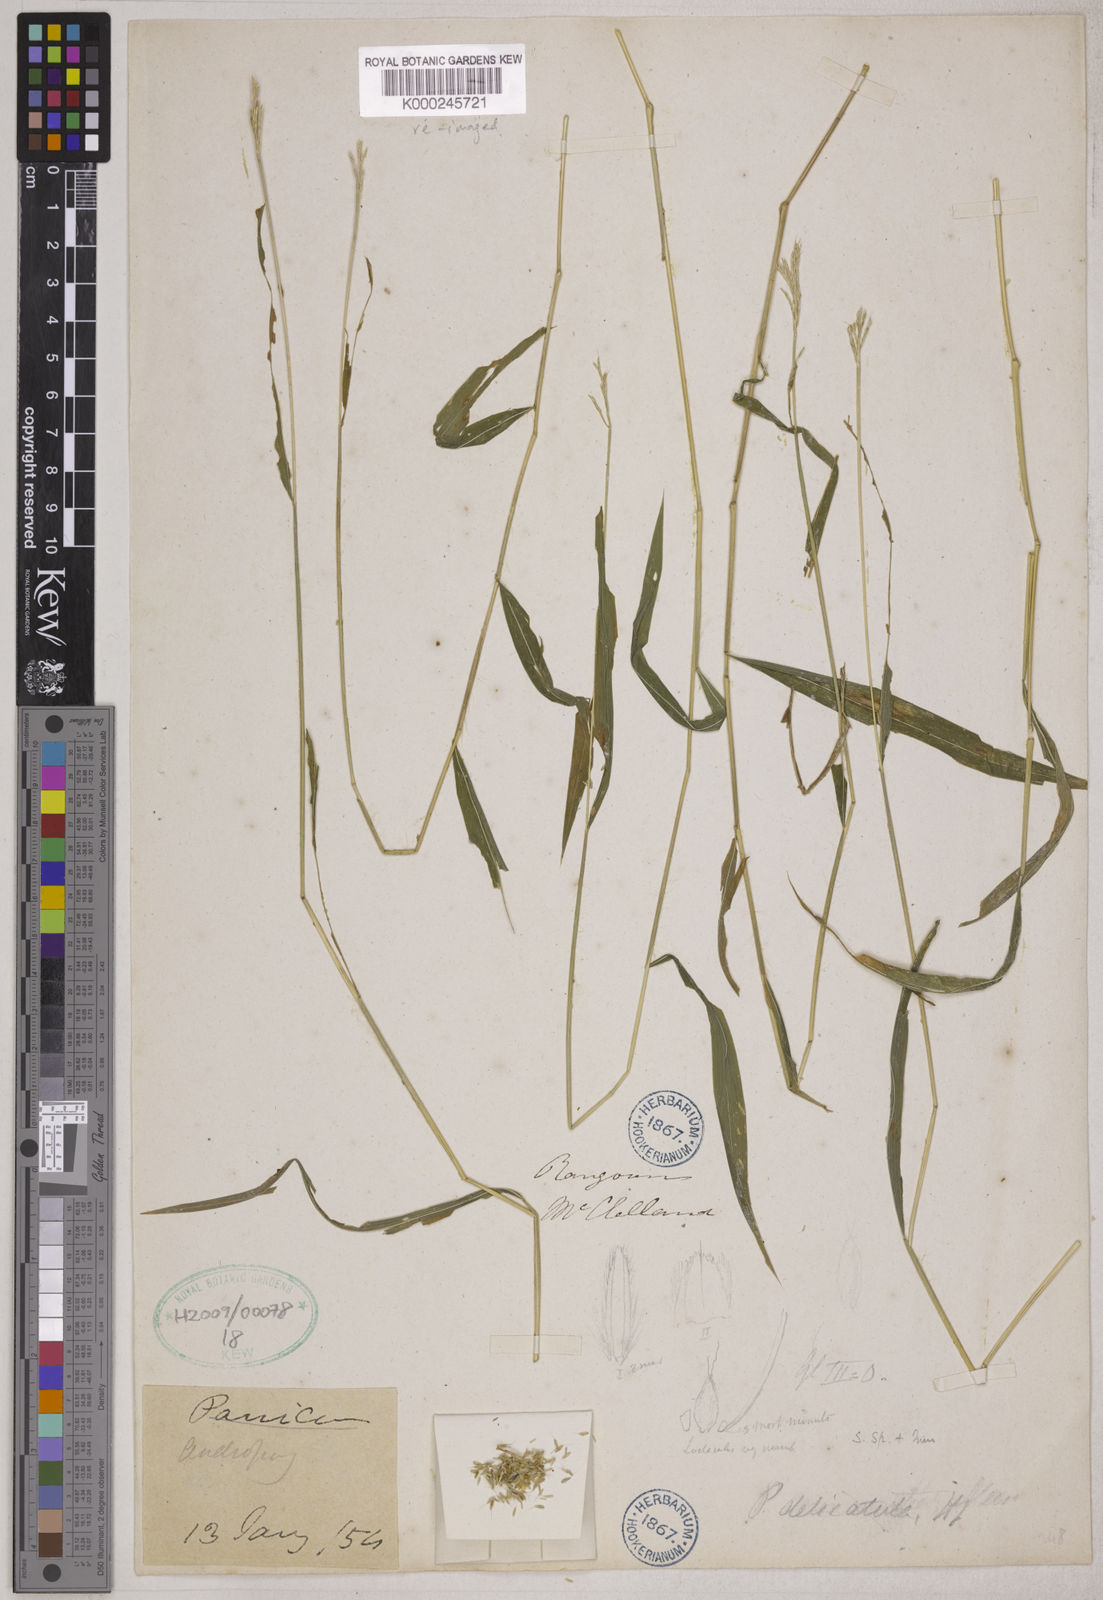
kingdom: Plantae
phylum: Tracheophyta
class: Liliopsida
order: Poales
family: Poaceae
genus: Microstegium
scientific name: Microstegium delicatulum
